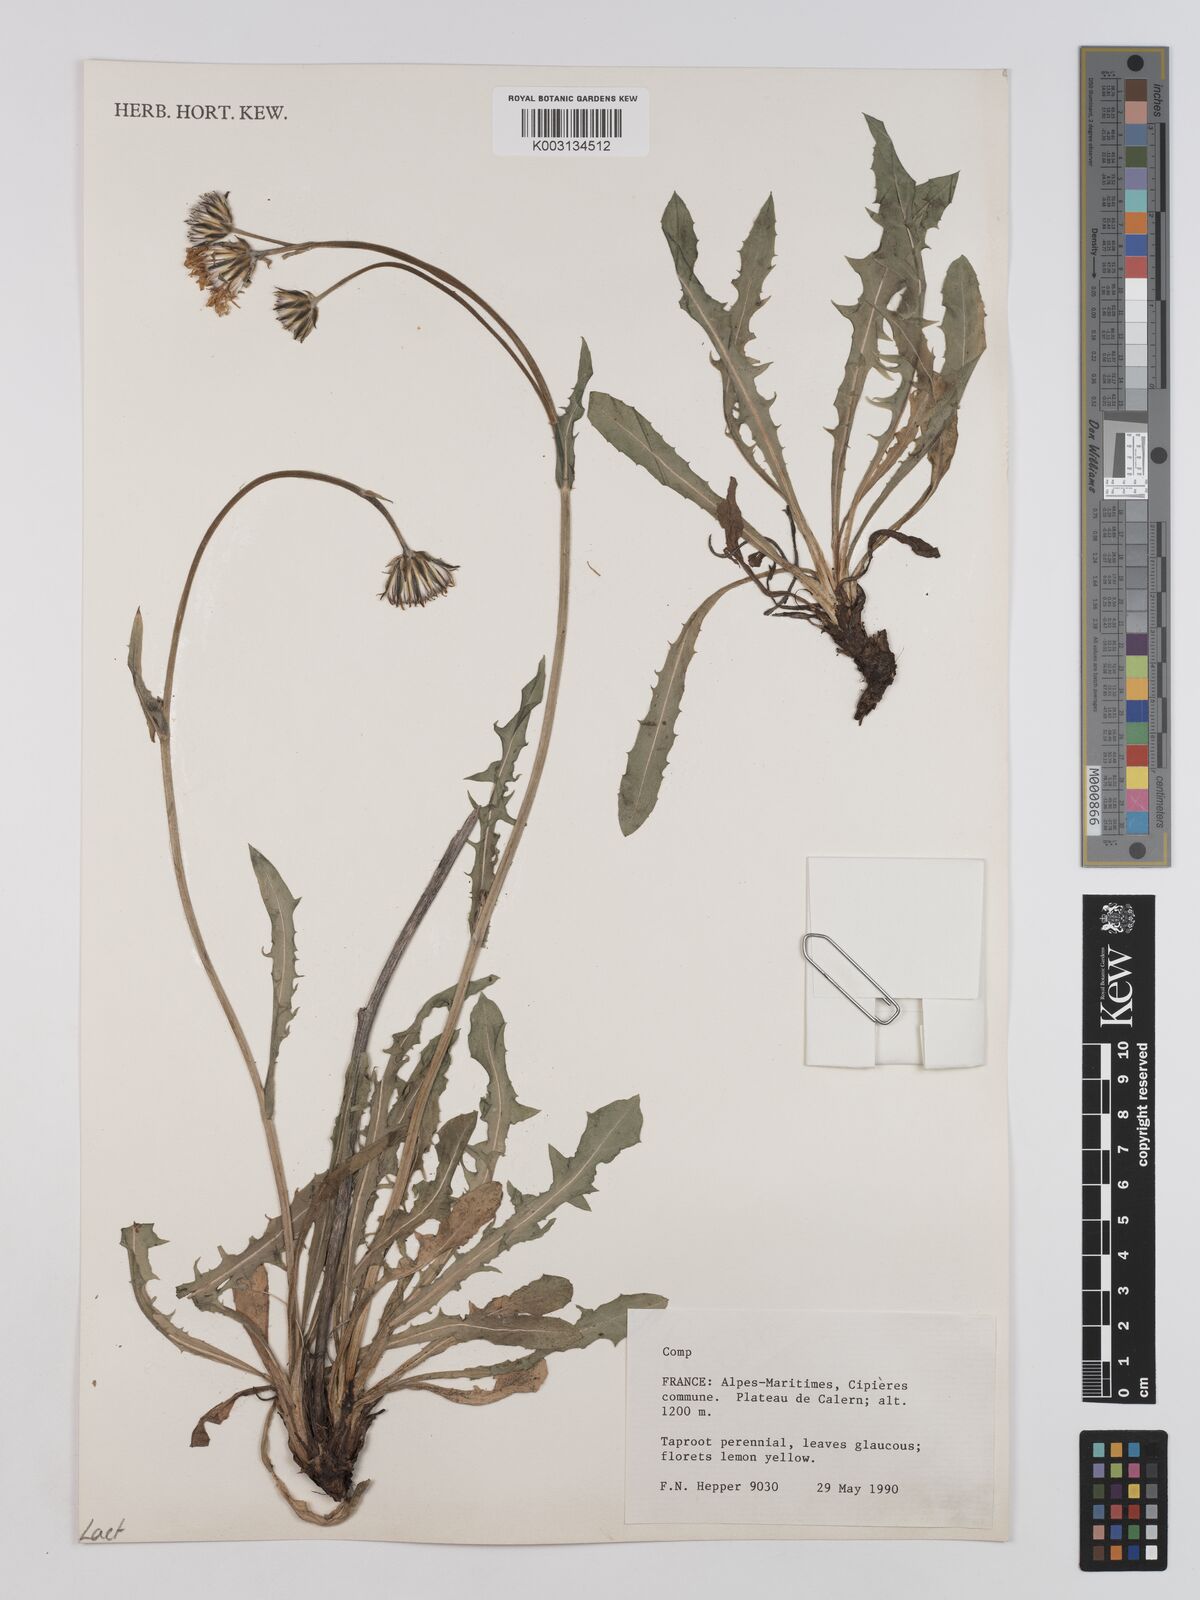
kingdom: Plantae
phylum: Tracheophyta
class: Magnoliopsida
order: Asterales
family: Asteraceae
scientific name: Asteraceae
